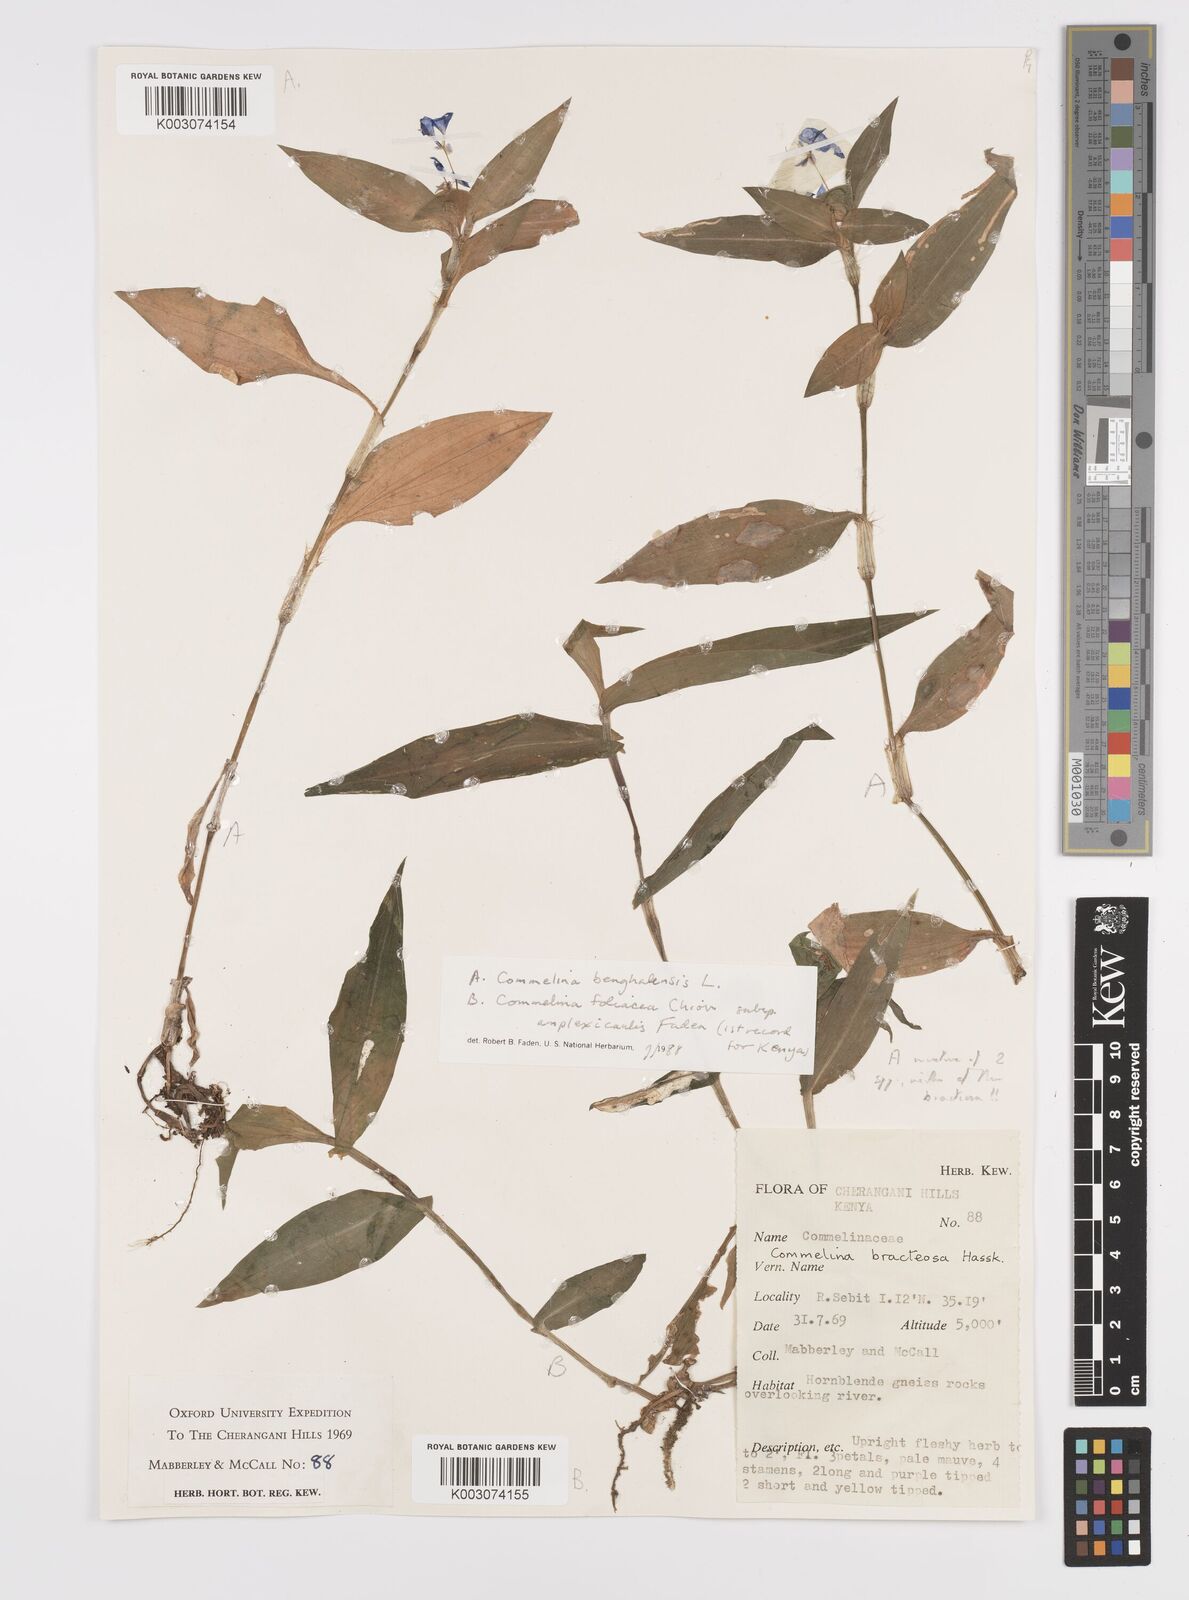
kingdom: Plantae
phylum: Tracheophyta
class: Liliopsida
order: Commelinales
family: Commelinaceae
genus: Commelina
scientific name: Commelina foliacea
